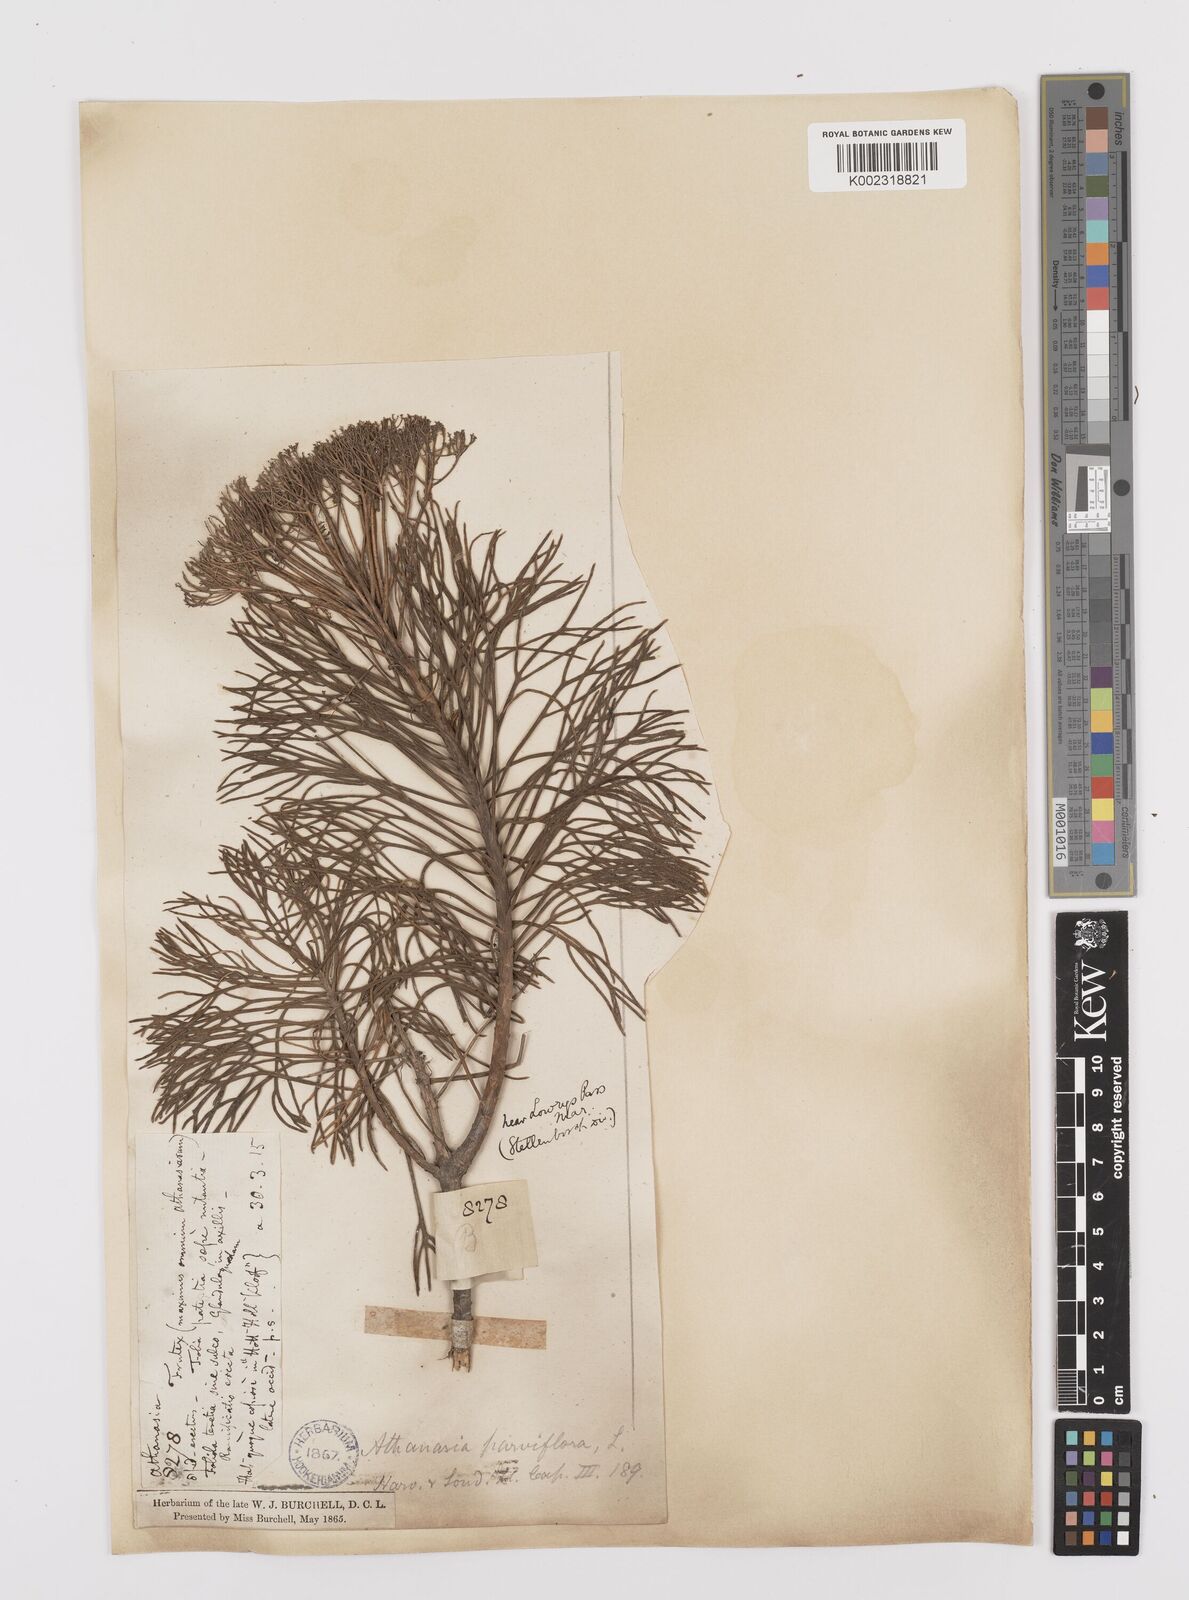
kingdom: Plantae
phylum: Tracheophyta
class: Magnoliopsida
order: Asterales
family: Asteraceae
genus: Hymenolepis
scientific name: Hymenolepis crithmifolia
